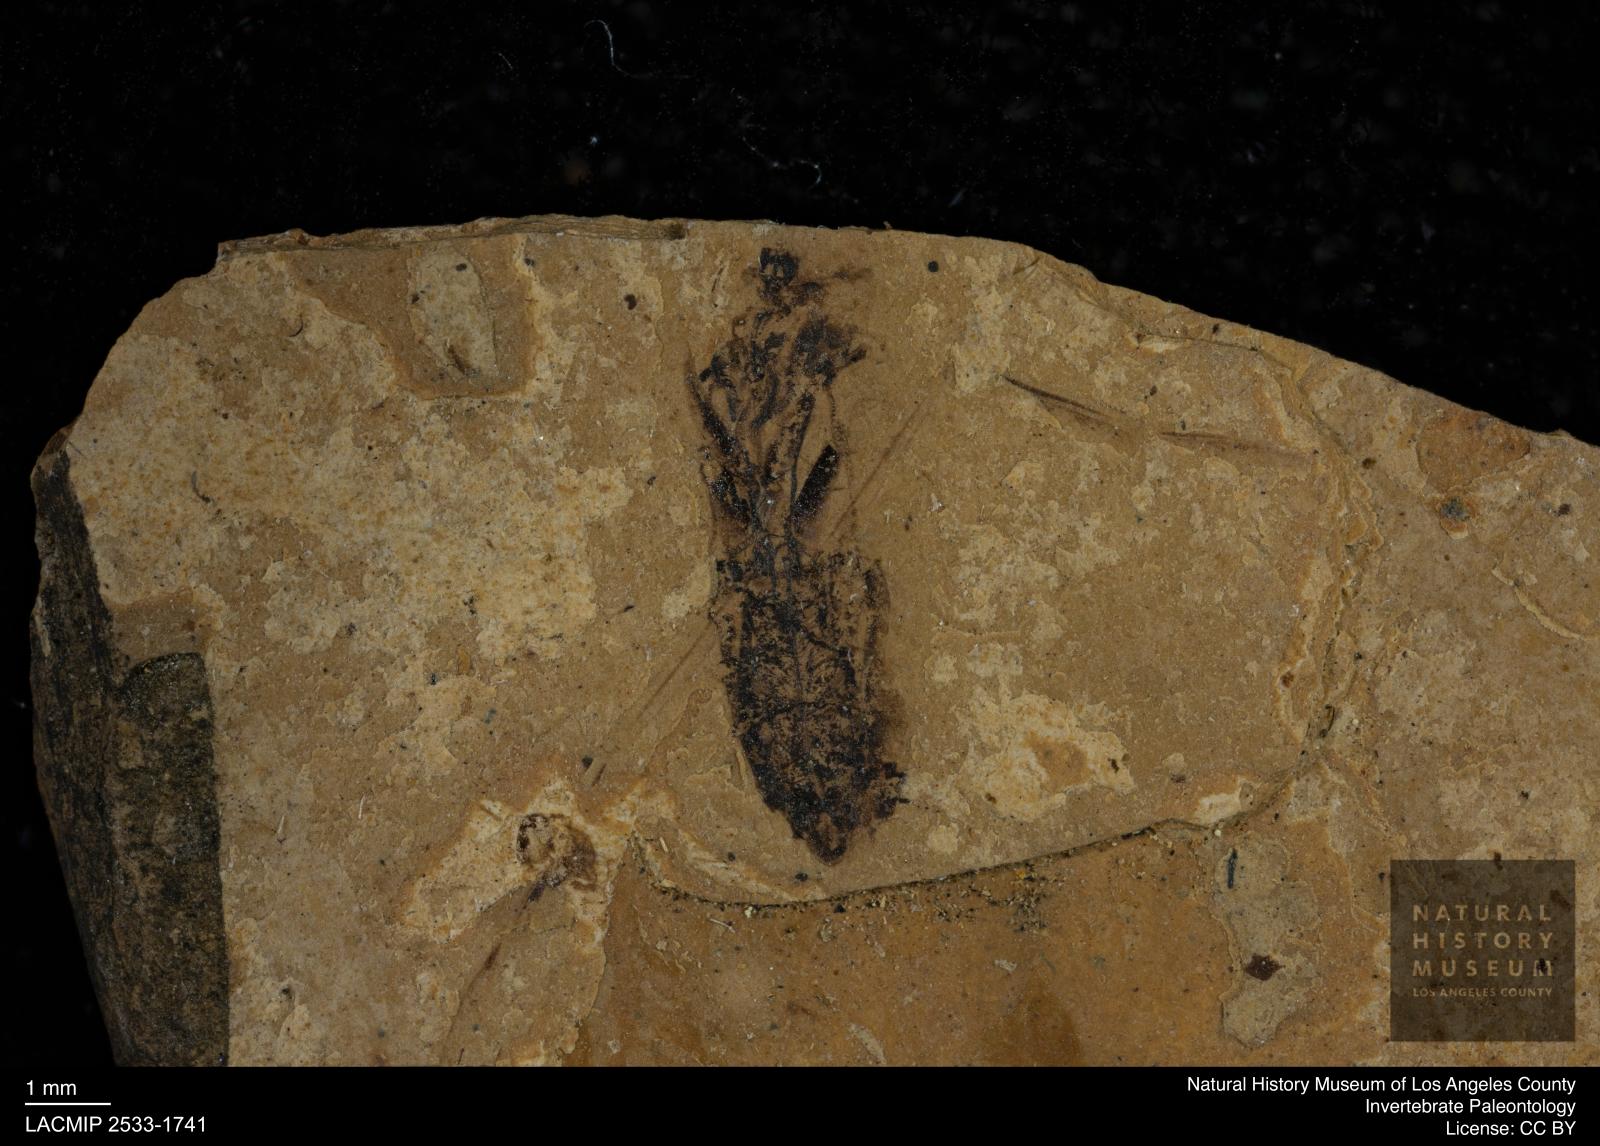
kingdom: Animalia
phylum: Arthropoda
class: Insecta
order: Hemiptera
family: Notonectidae
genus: Notonecta
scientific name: Notonecta
